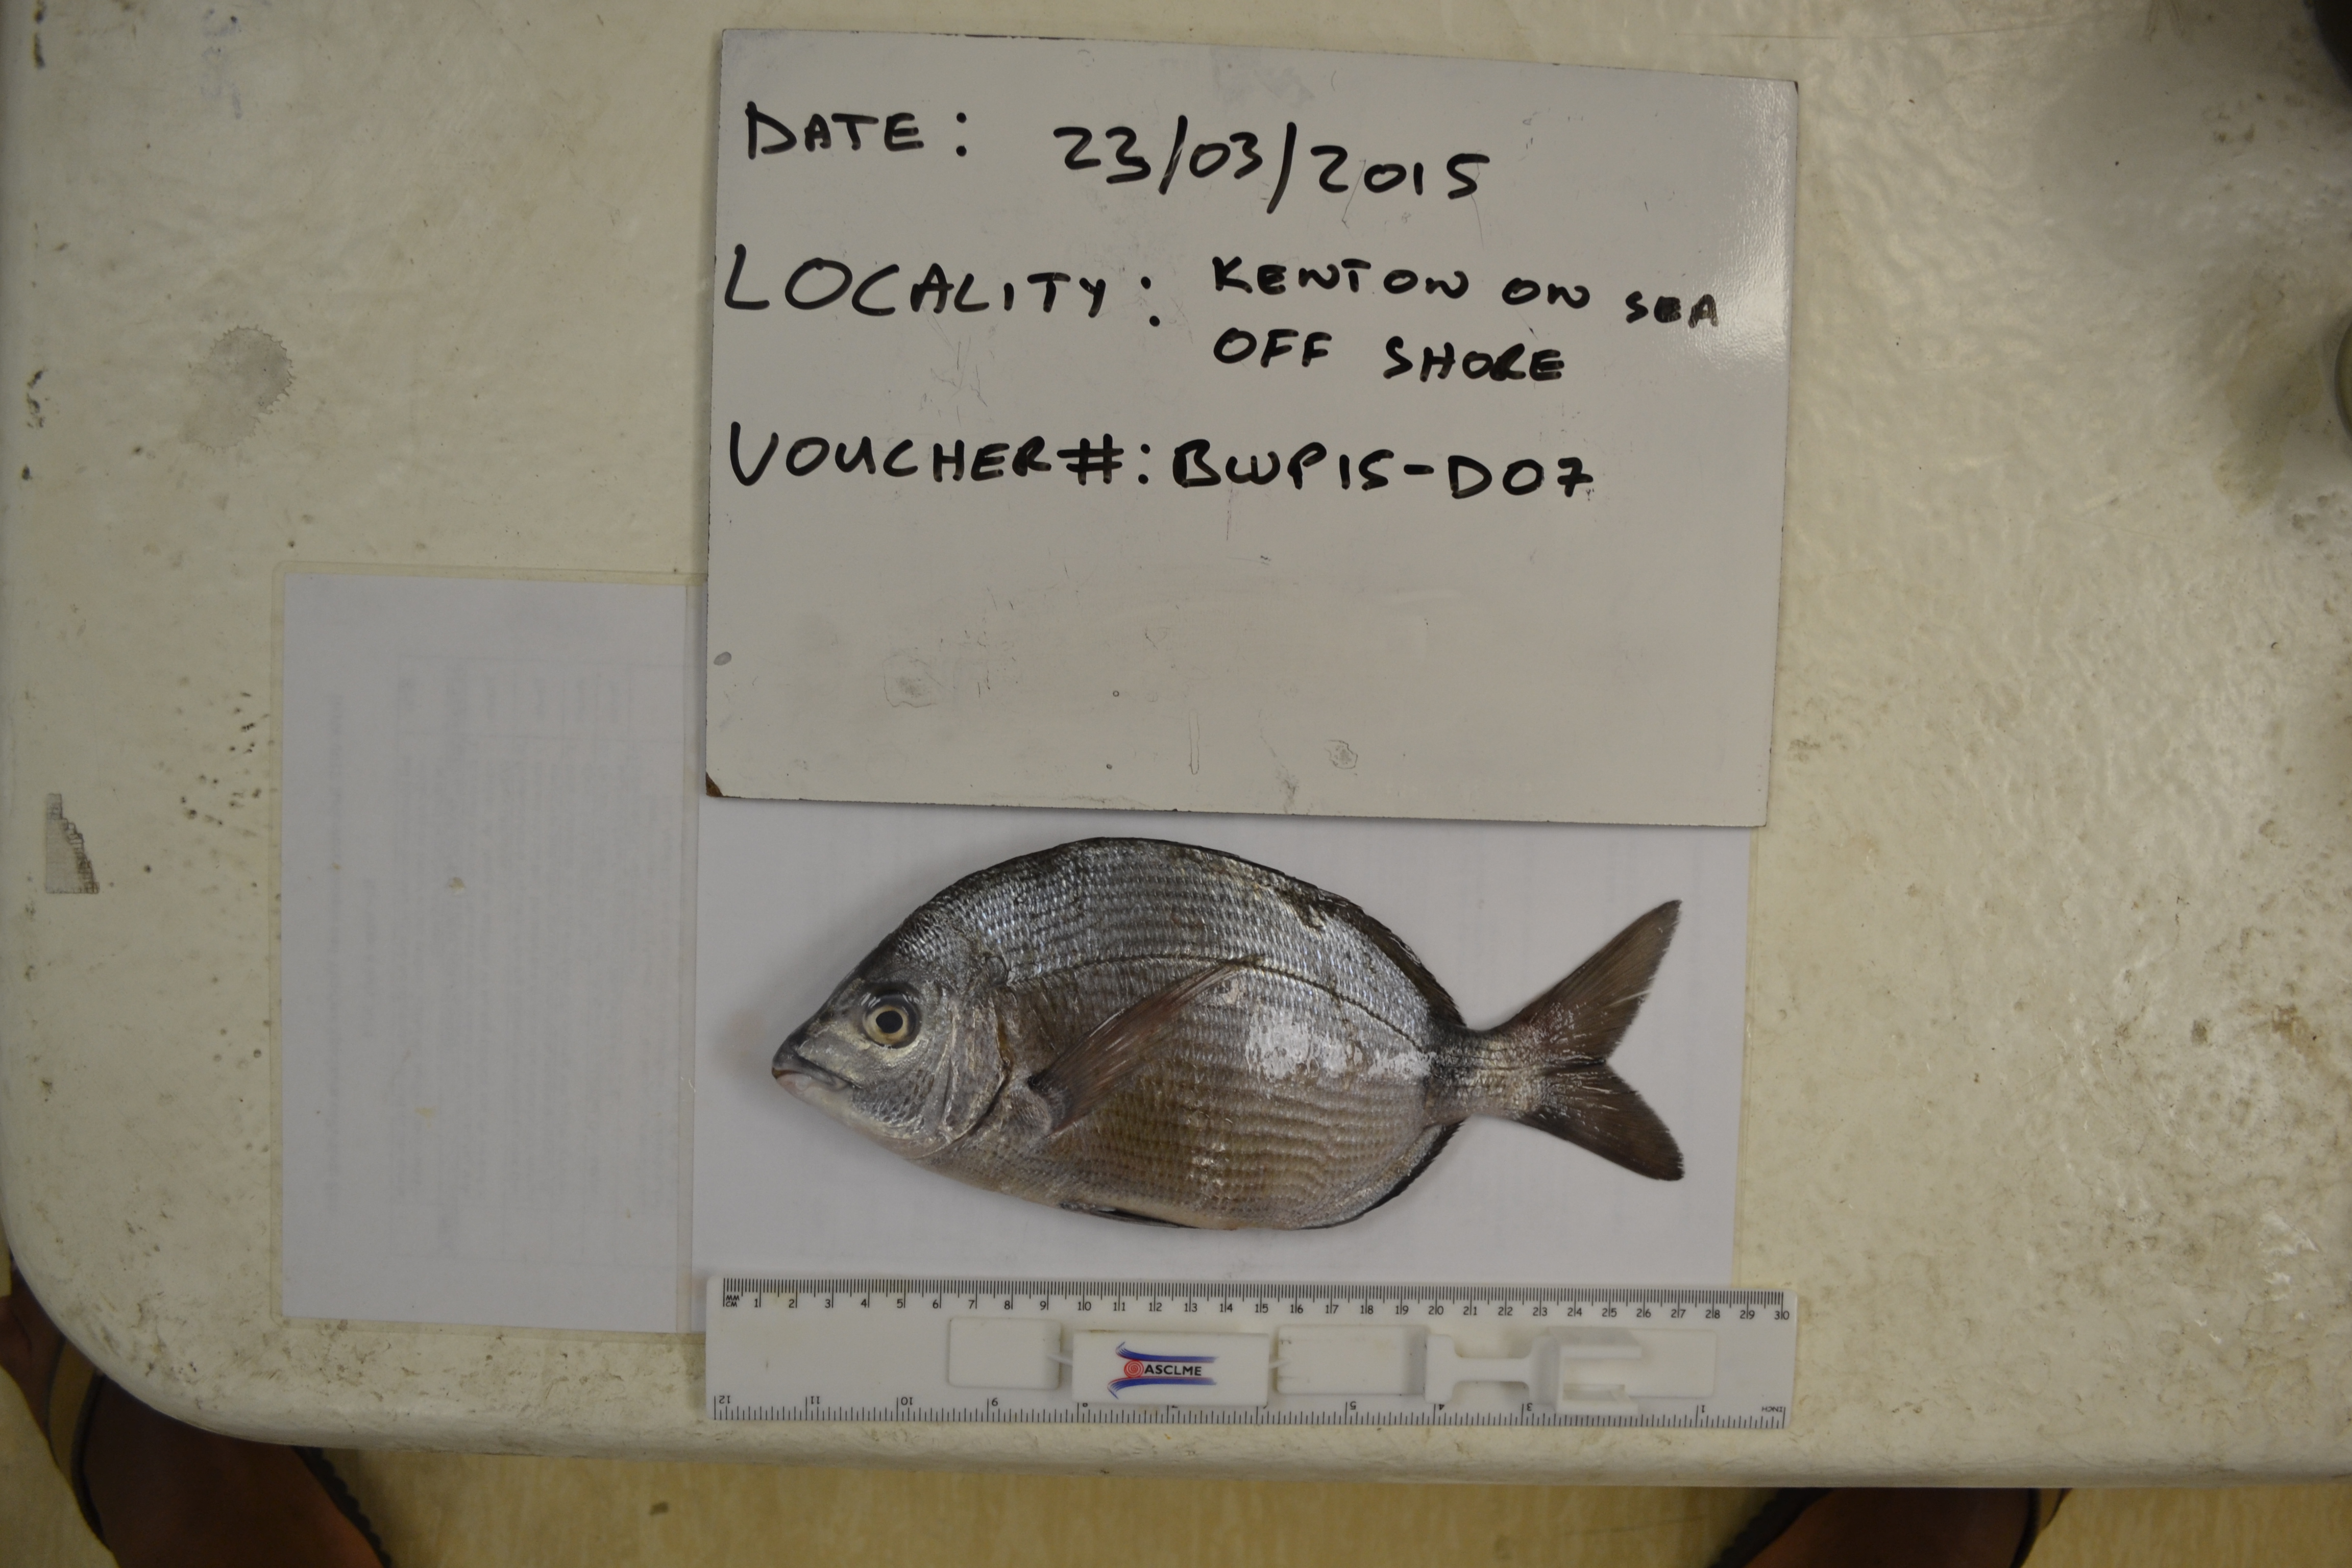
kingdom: Animalia
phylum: Chordata
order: Perciformes
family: Sparidae
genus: Diplodus
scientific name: Diplodus capensis
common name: Blacktail
